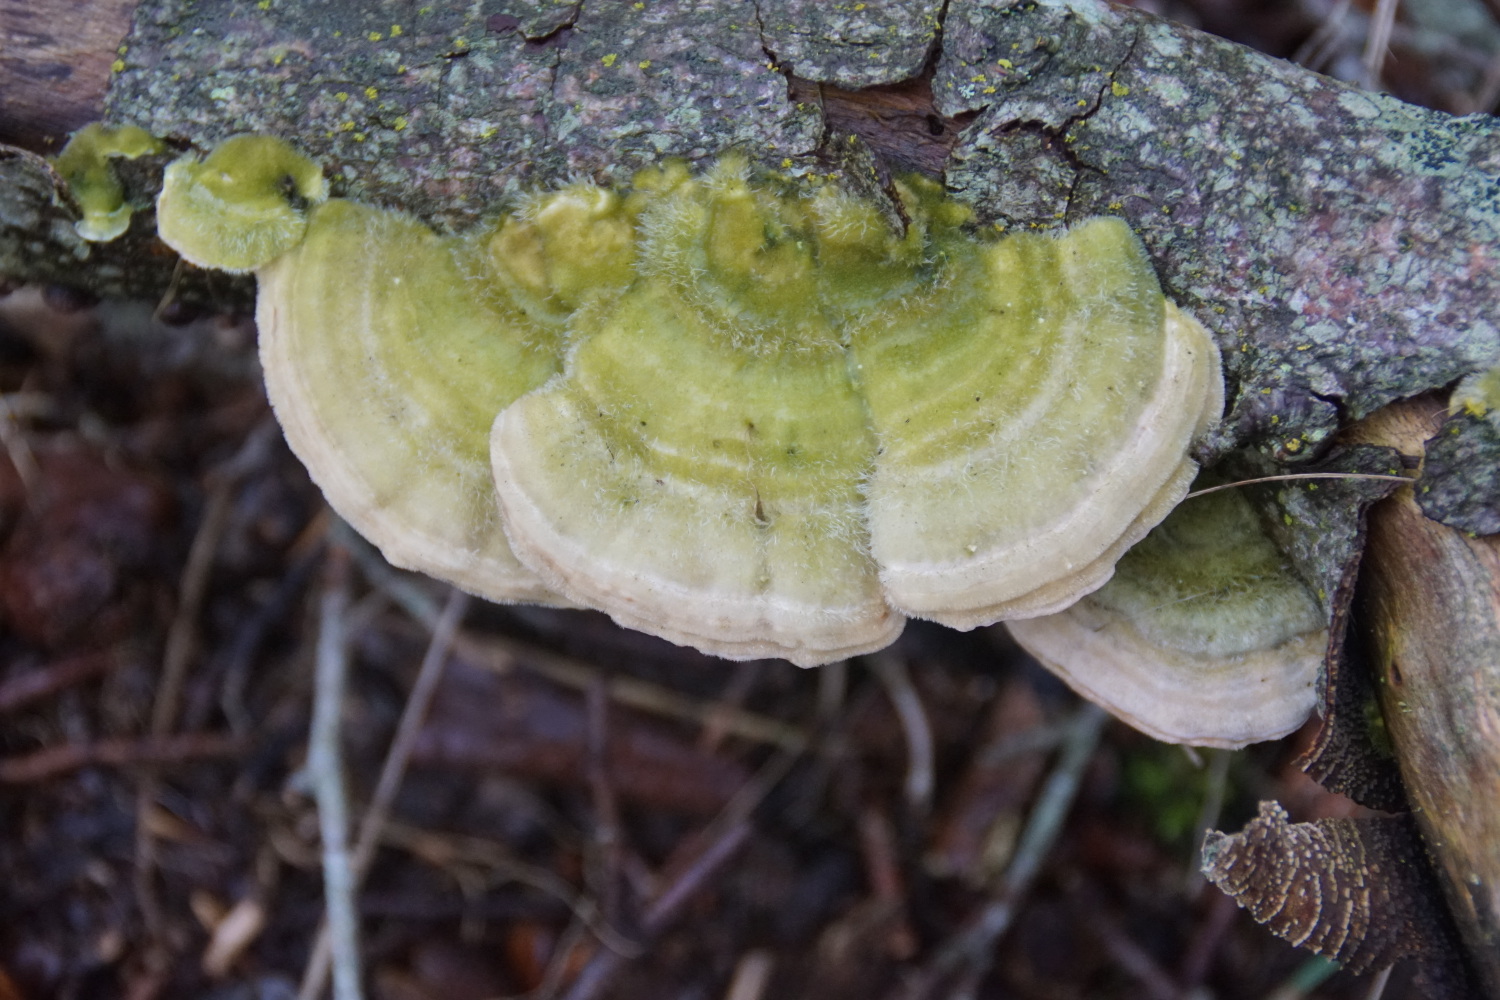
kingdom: Fungi
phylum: Basidiomycota
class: Agaricomycetes
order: Polyporales
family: Polyporaceae
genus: Trametes
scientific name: Trametes hirsuta
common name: håret læderporesvamp
